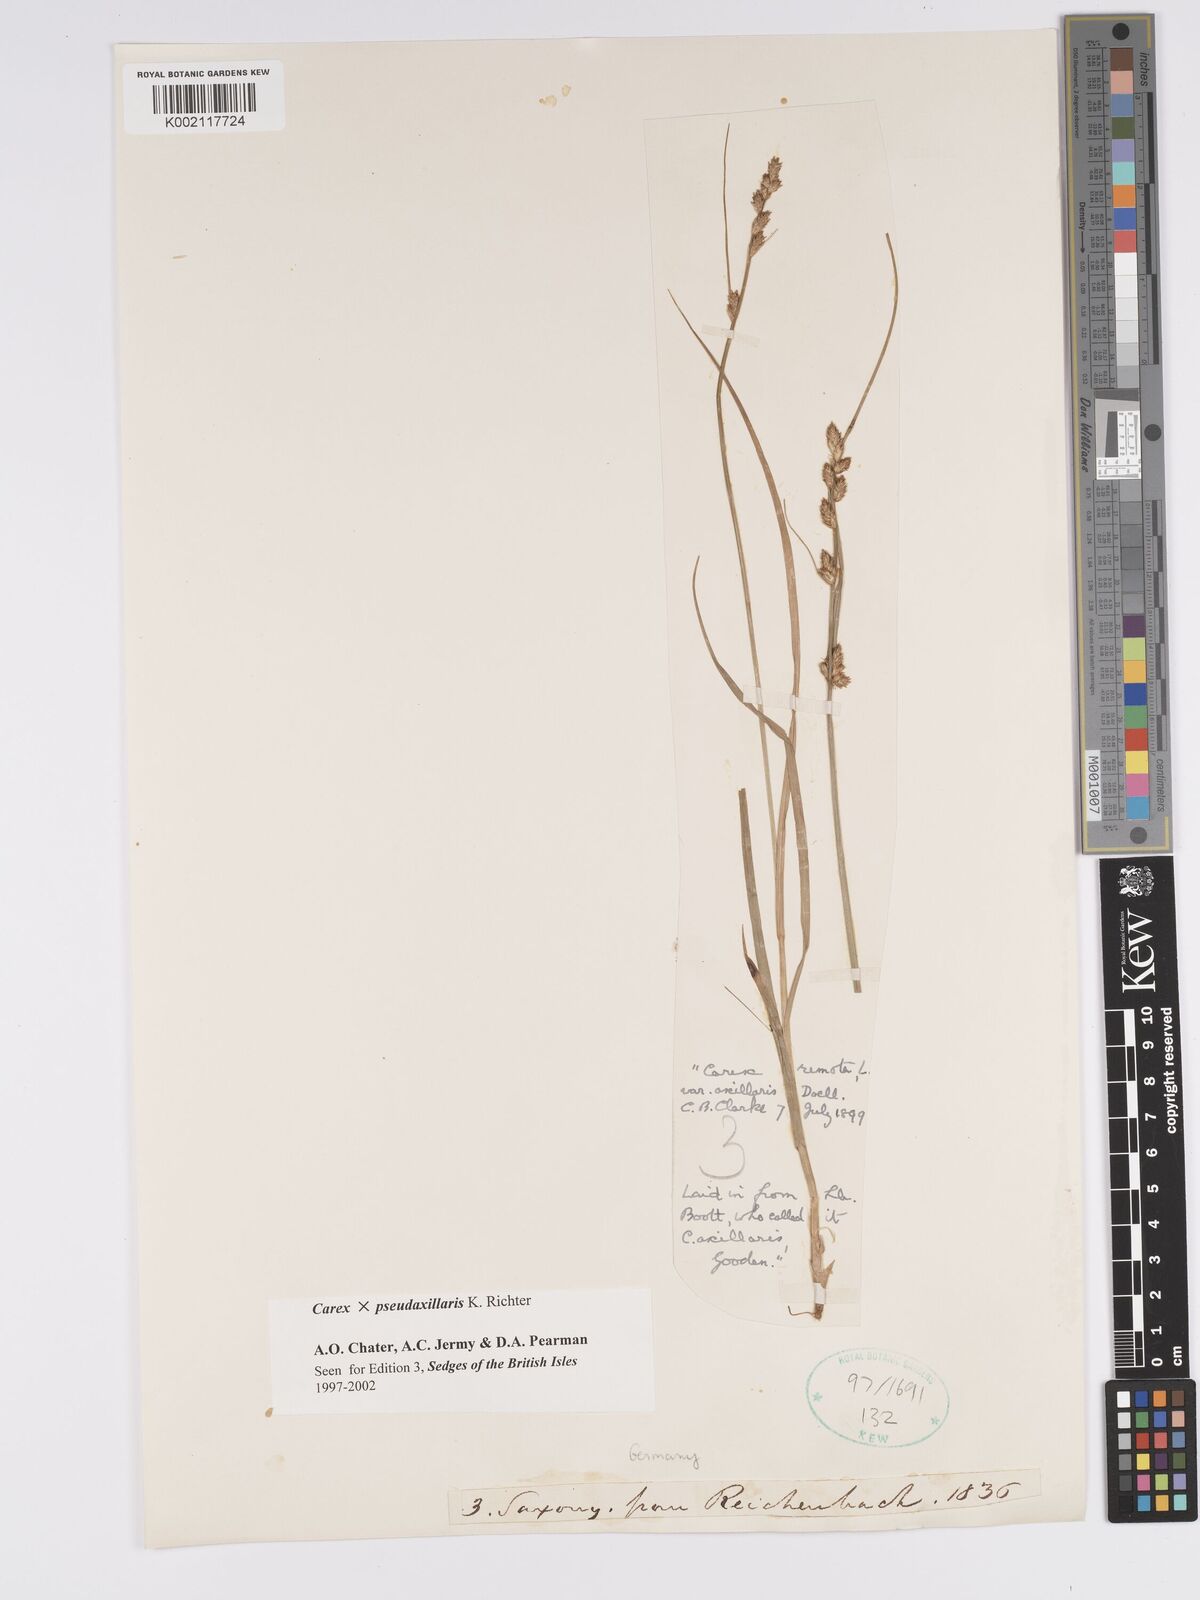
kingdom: Plantae
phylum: Tracheophyta
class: Liliopsida
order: Poales
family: Cyperaceae
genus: Carex
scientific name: Carex pseudoaxillaris
